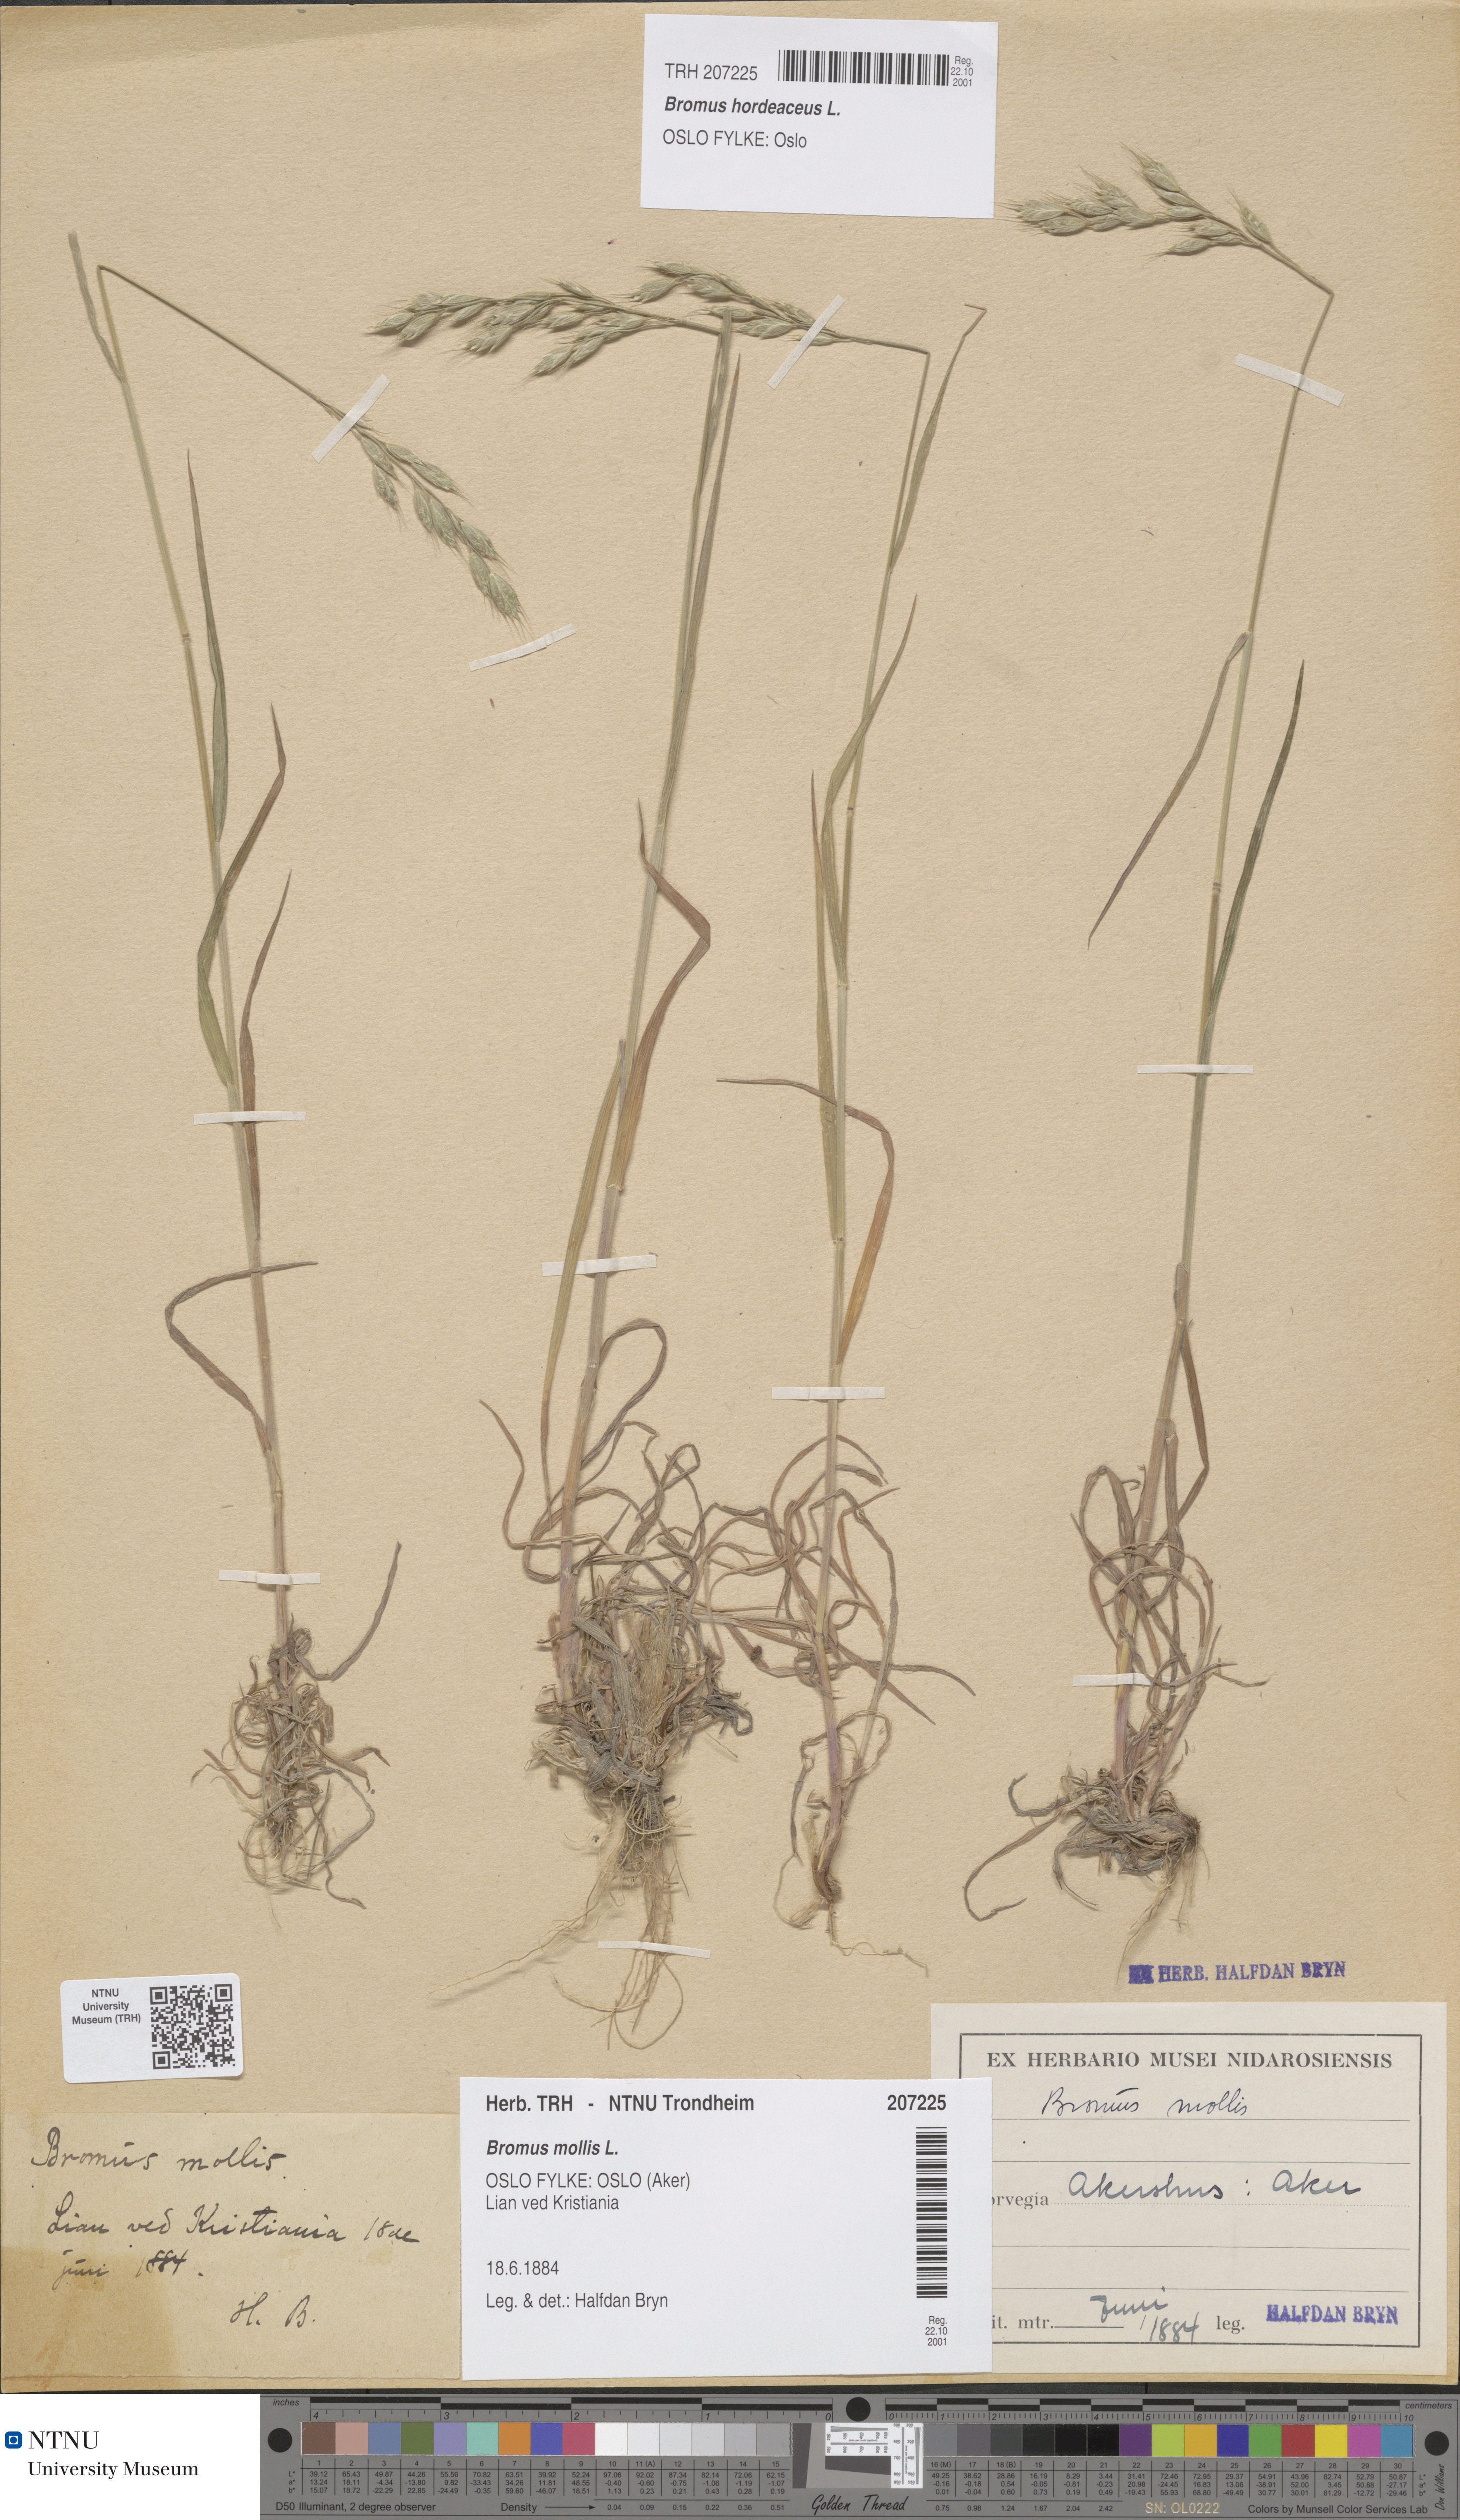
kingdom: Plantae
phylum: Tracheophyta
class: Liliopsida
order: Poales
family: Poaceae
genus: Bromus
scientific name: Bromus hordeaceus
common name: Soft brome
